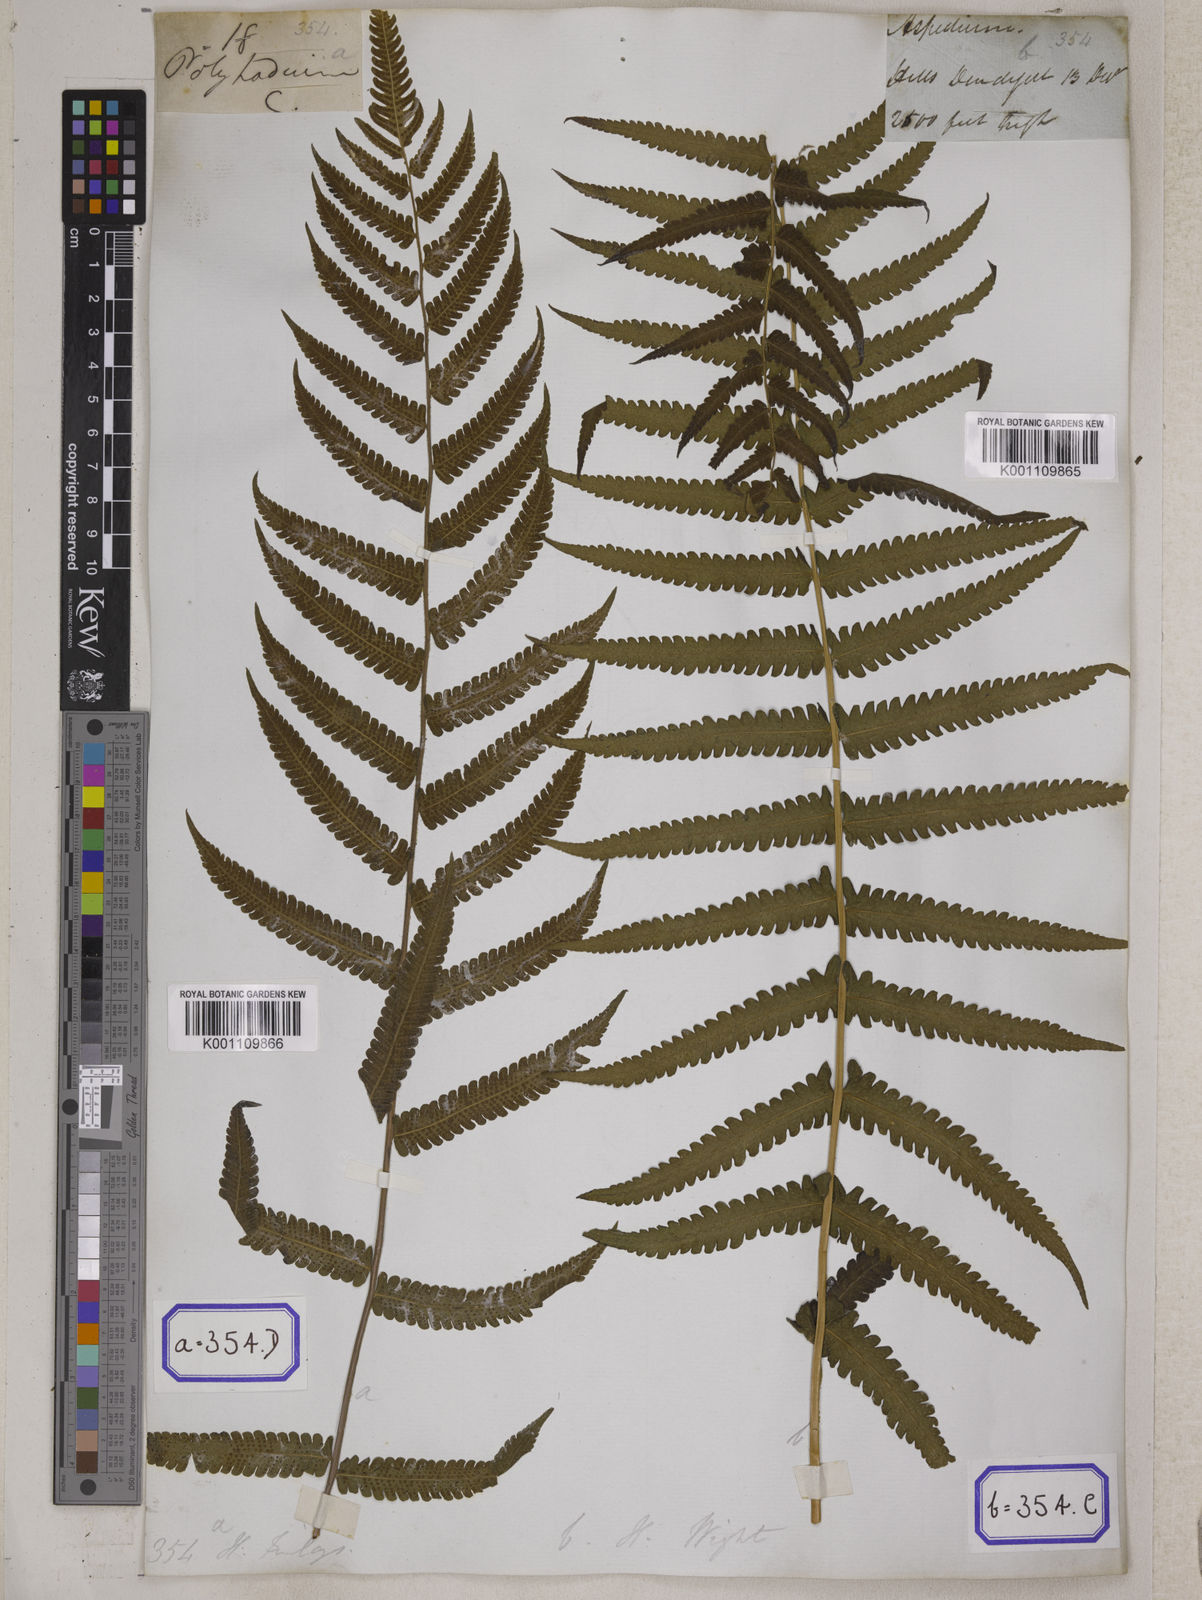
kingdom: Plantae
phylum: Tracheophyta
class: Polypodiopsida
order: Polypodiales
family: Tectariaceae
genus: Tectaria
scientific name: Tectaria Aspidium spec
